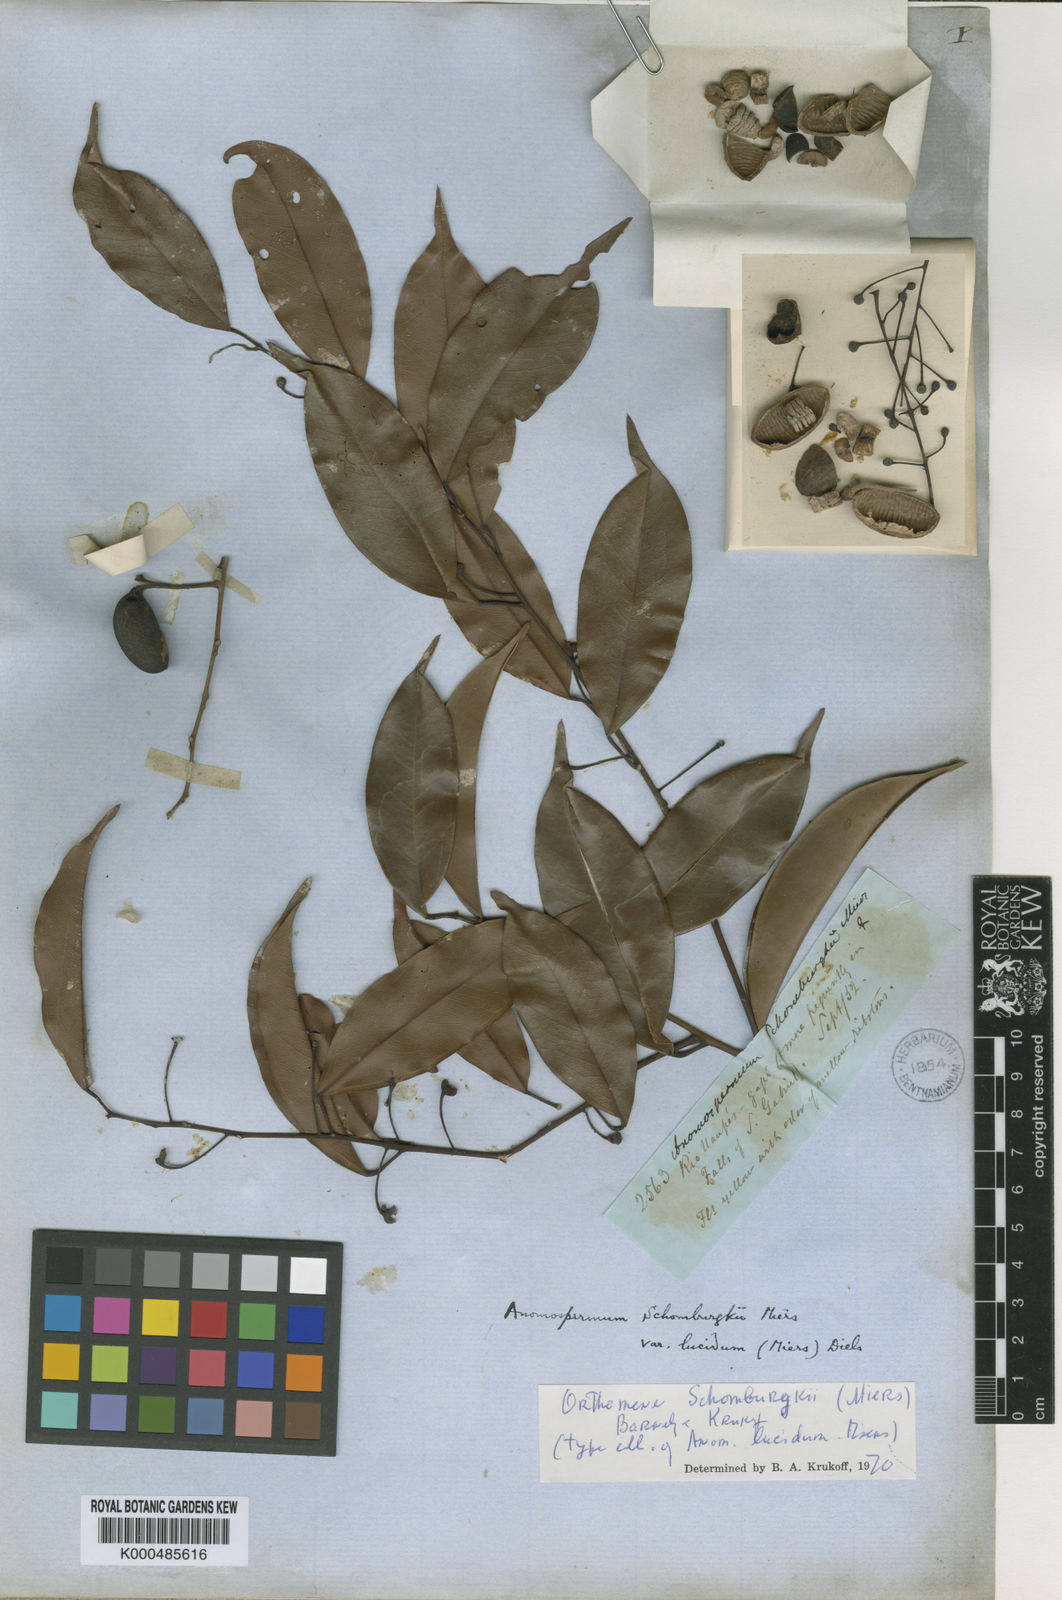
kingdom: Plantae
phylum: Tracheophyta
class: Magnoliopsida
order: Ranunculales
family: Menispermaceae
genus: Orthomene
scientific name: Orthomene schomburgkii
